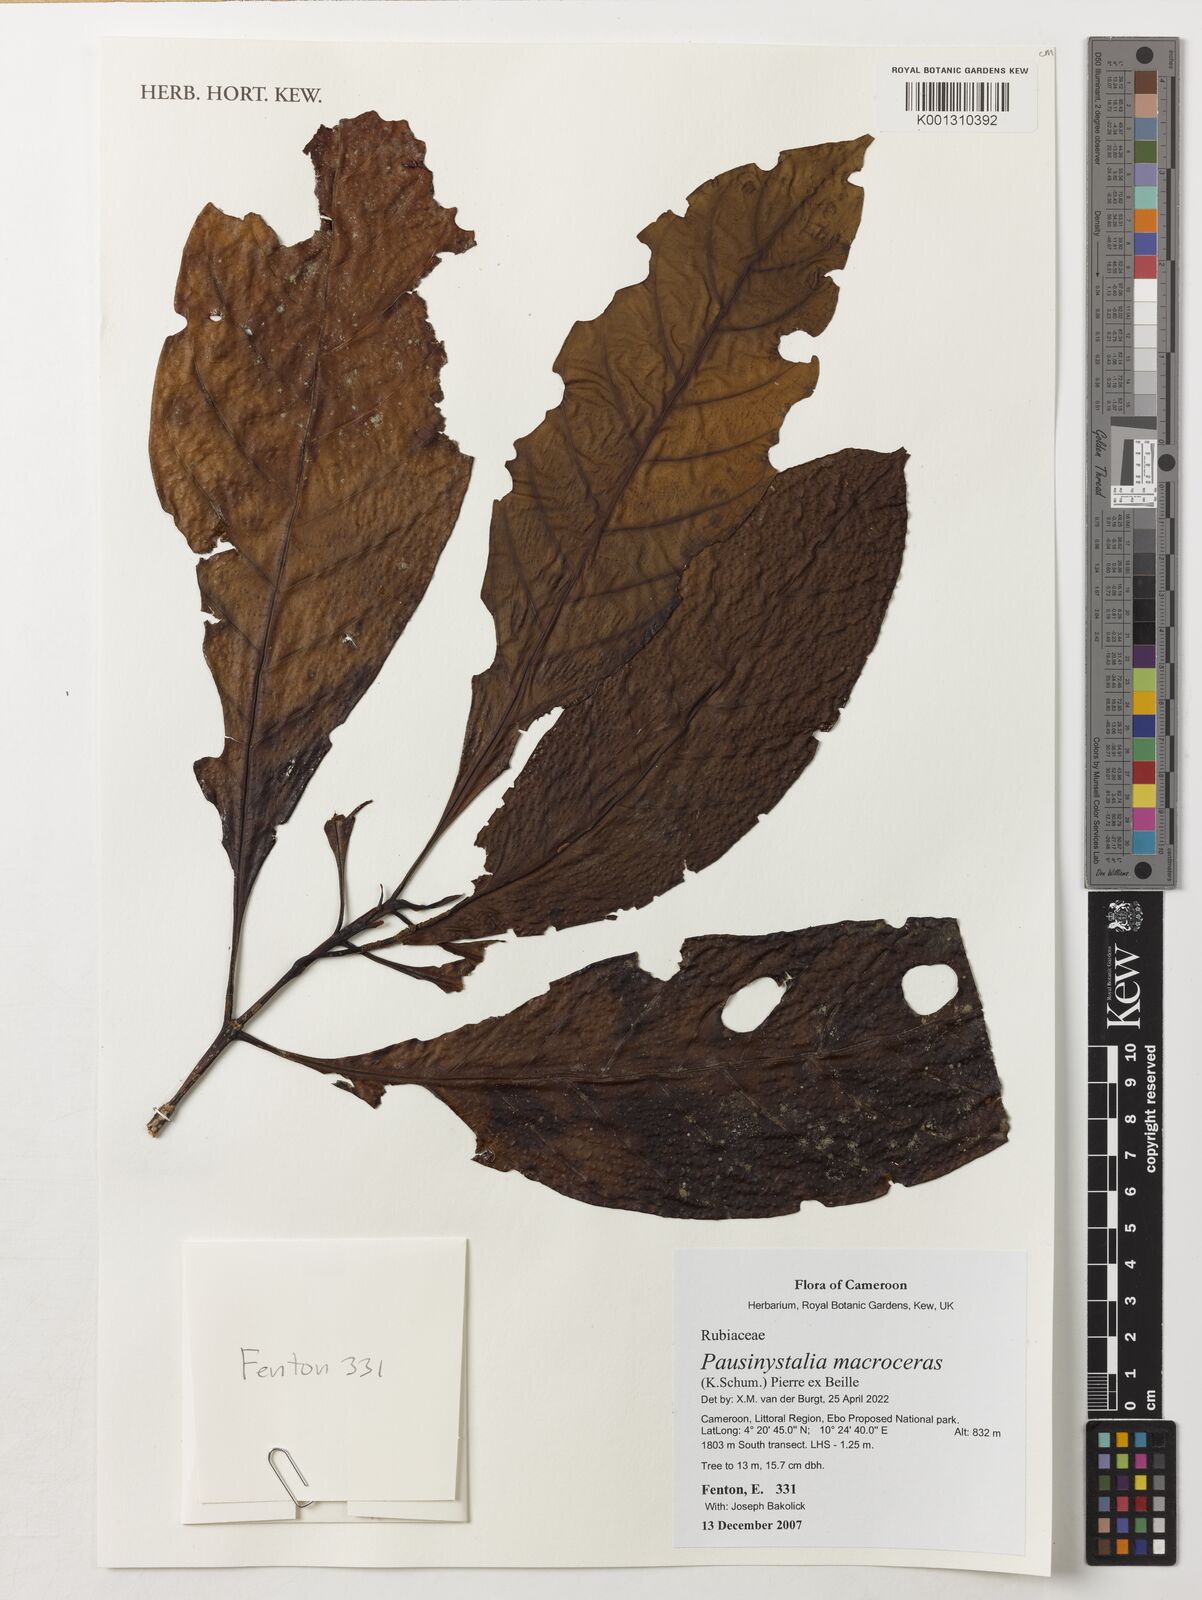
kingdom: Plantae
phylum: Tracheophyta
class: Magnoliopsida
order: Gentianales
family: Rubiaceae
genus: Corynanthe
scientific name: Corynanthe macroceras
